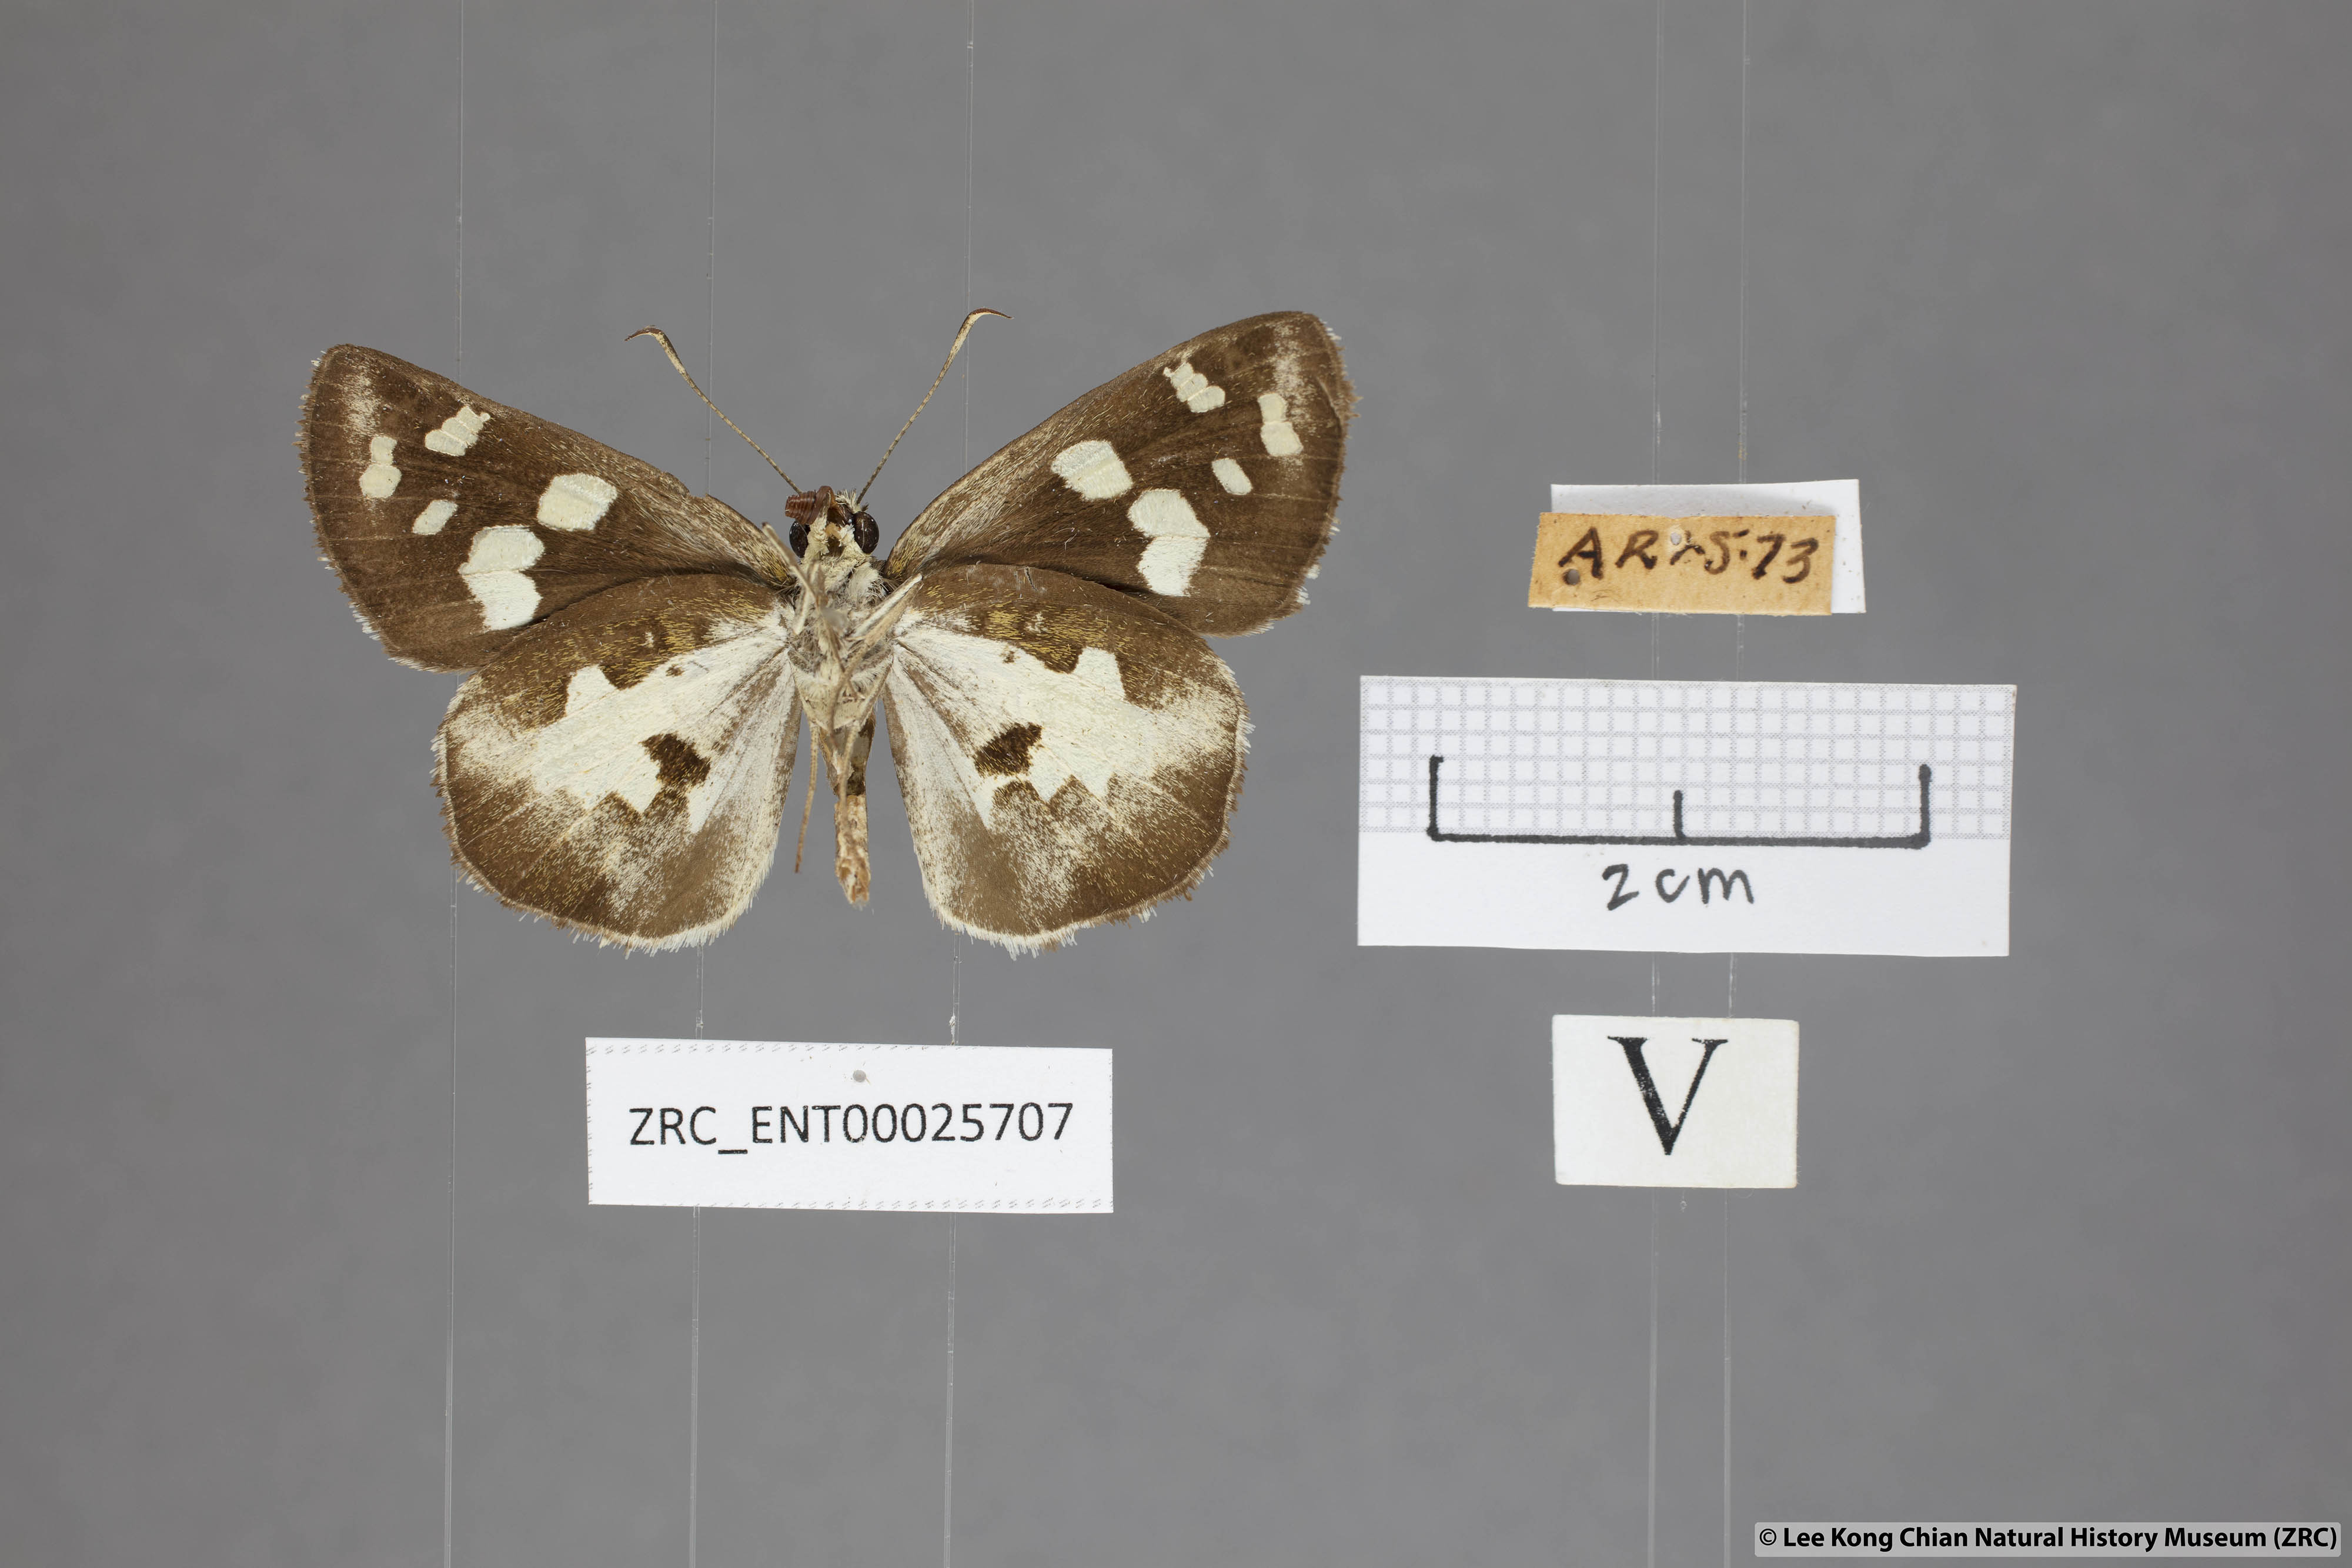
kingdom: Animalia
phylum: Arthropoda
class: Insecta
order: Lepidoptera
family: Hesperiidae
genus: Udaspes
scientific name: Udaspes folus
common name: Grass demon
